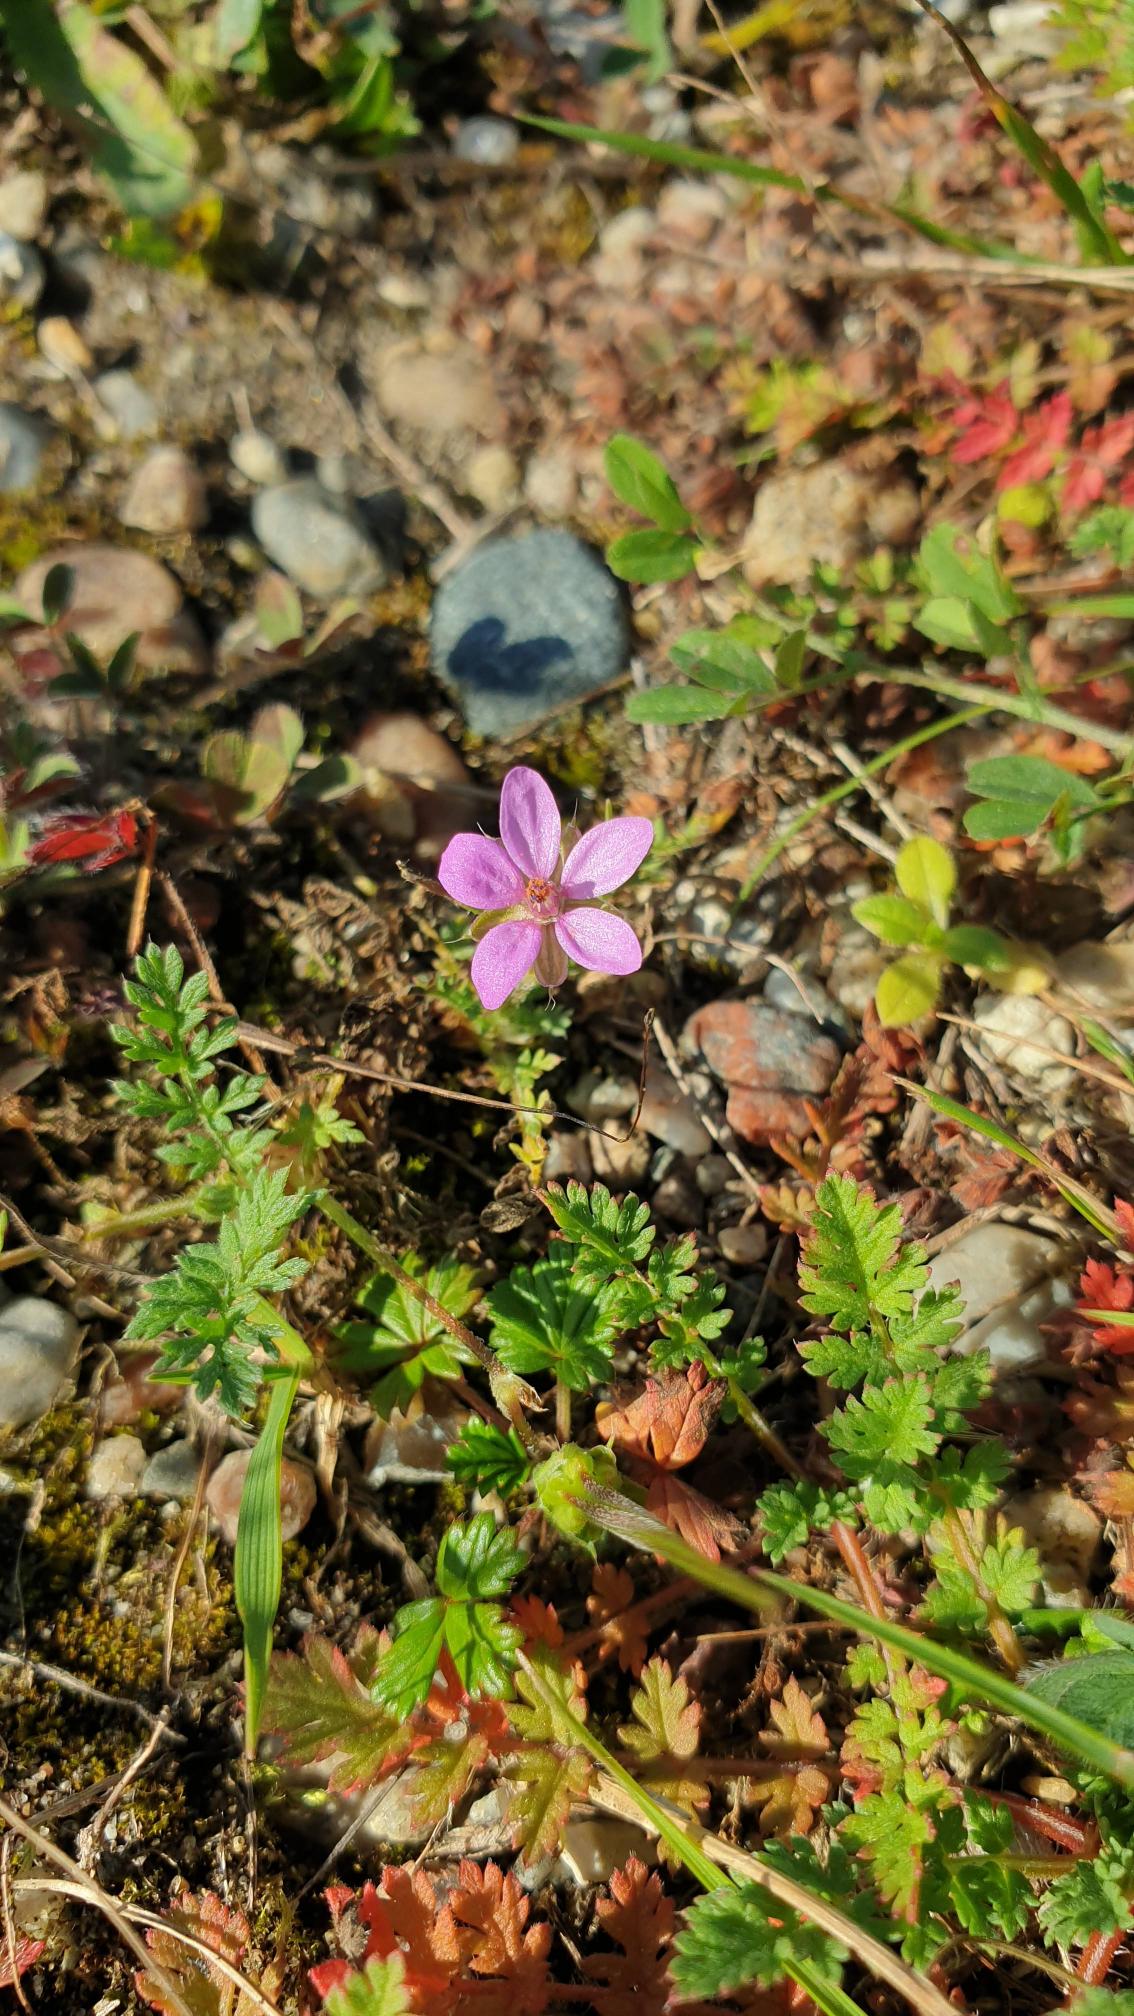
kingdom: Plantae
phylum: Tracheophyta
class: Magnoliopsida
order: Geraniales
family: Geraniaceae
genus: Erodium
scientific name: Erodium cicutarium
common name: Hejrenæb
